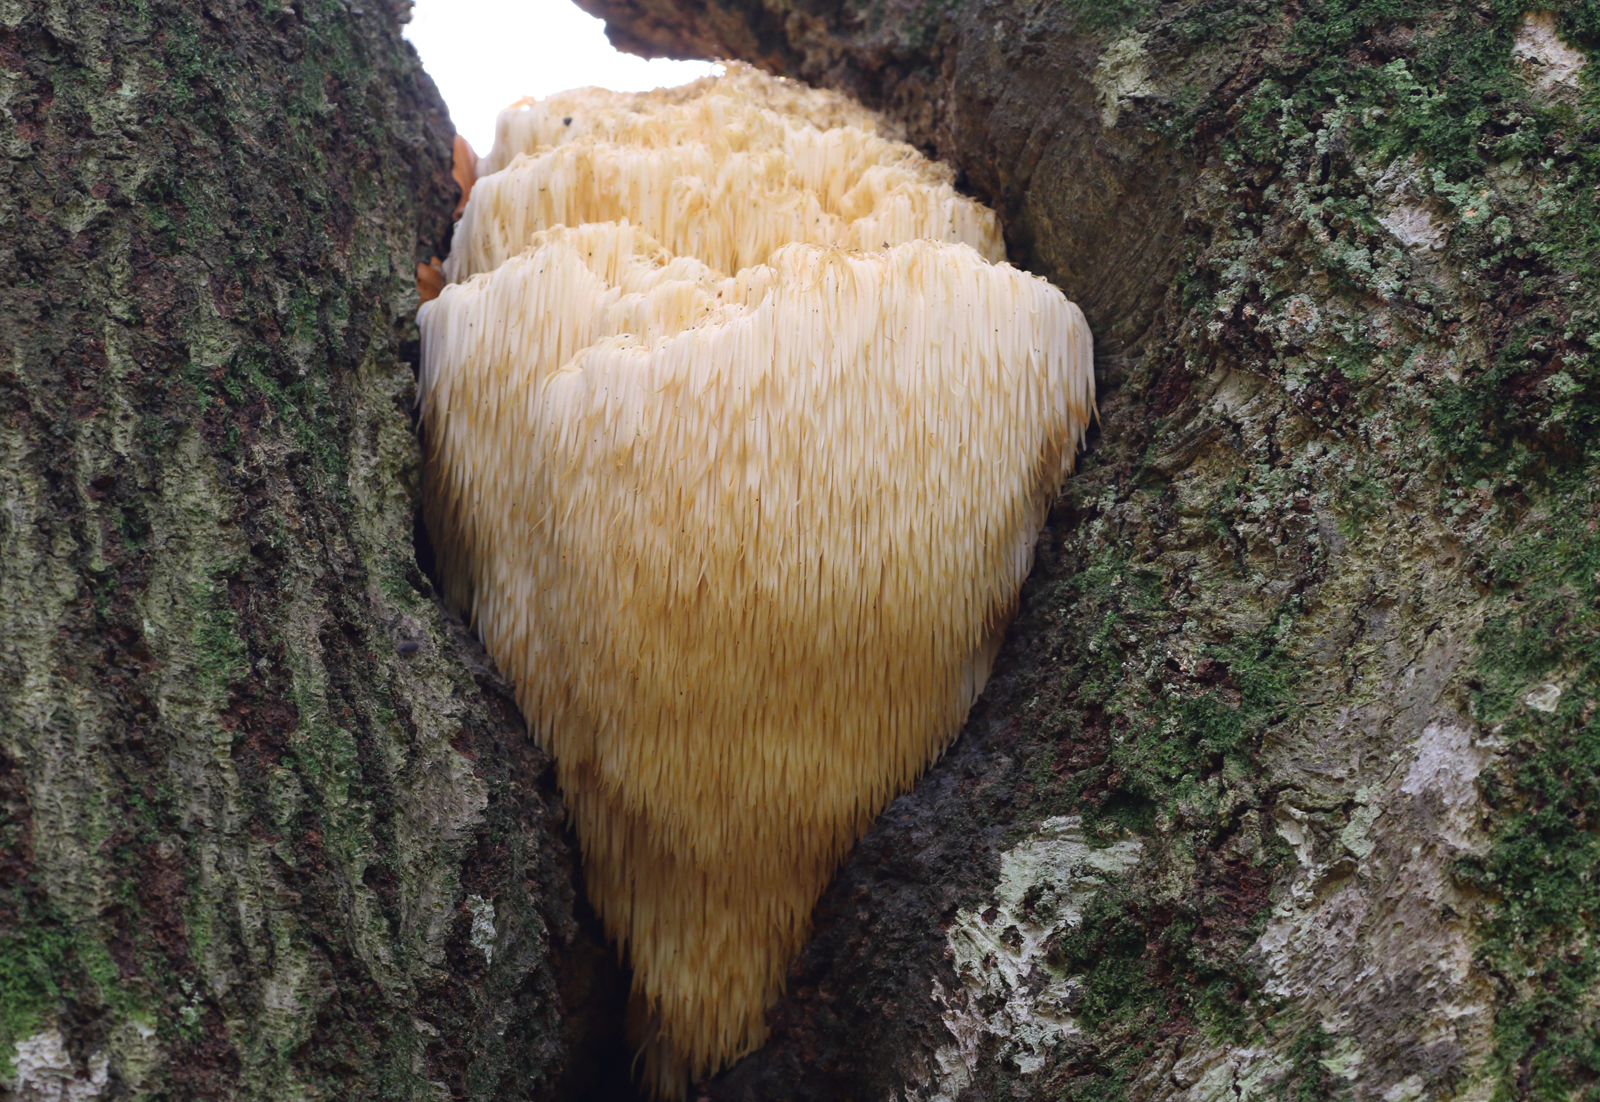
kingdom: Fungi
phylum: Basidiomycota
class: Agaricomycetes
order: Russulales
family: Hericiaceae
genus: Hericium
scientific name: Hericium erinaceus
